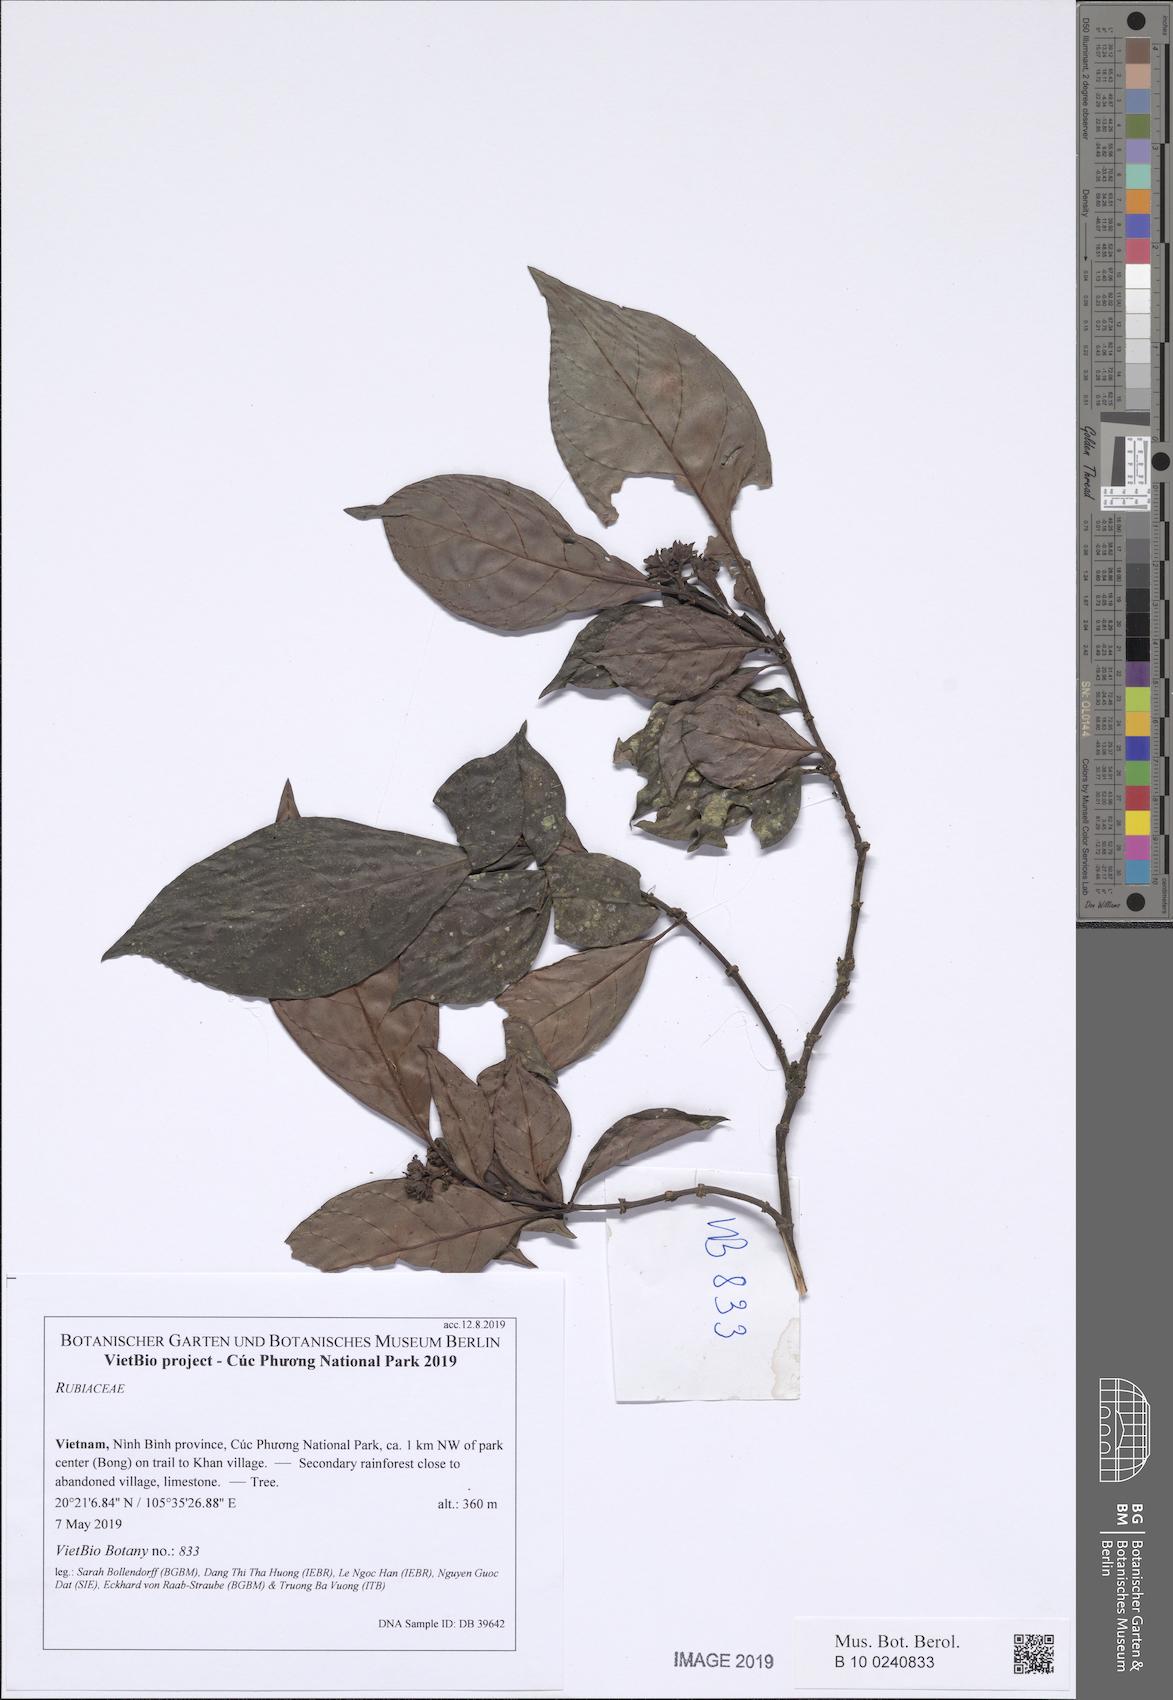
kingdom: Plantae
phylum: Tracheophyta
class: Magnoliopsida
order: Gentianales
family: Rubiaceae
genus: Psychotria
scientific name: Psychotria
